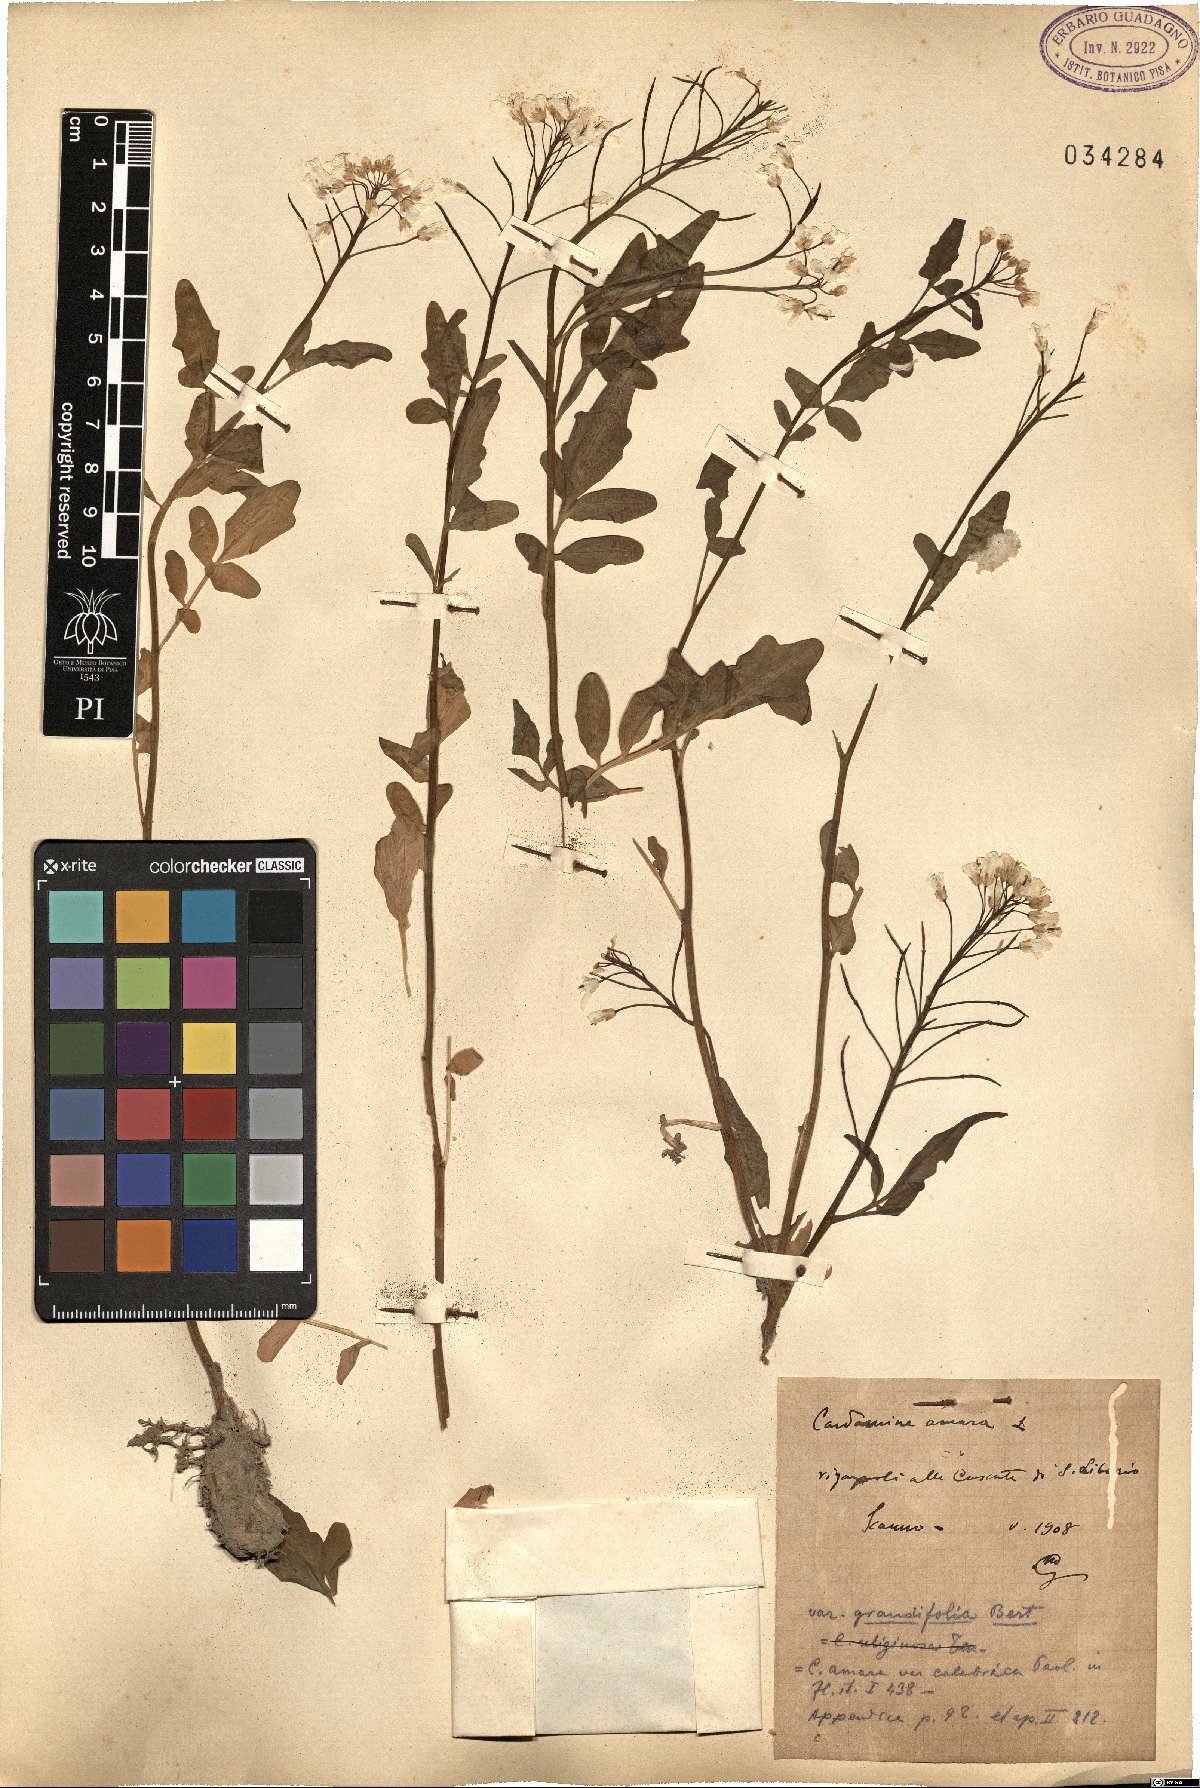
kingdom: Plantae
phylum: Tracheophyta
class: Magnoliopsida
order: Brassicales
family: Brassicaceae
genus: Cardamine
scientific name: Cardamine amara
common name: Large bitter-cress
